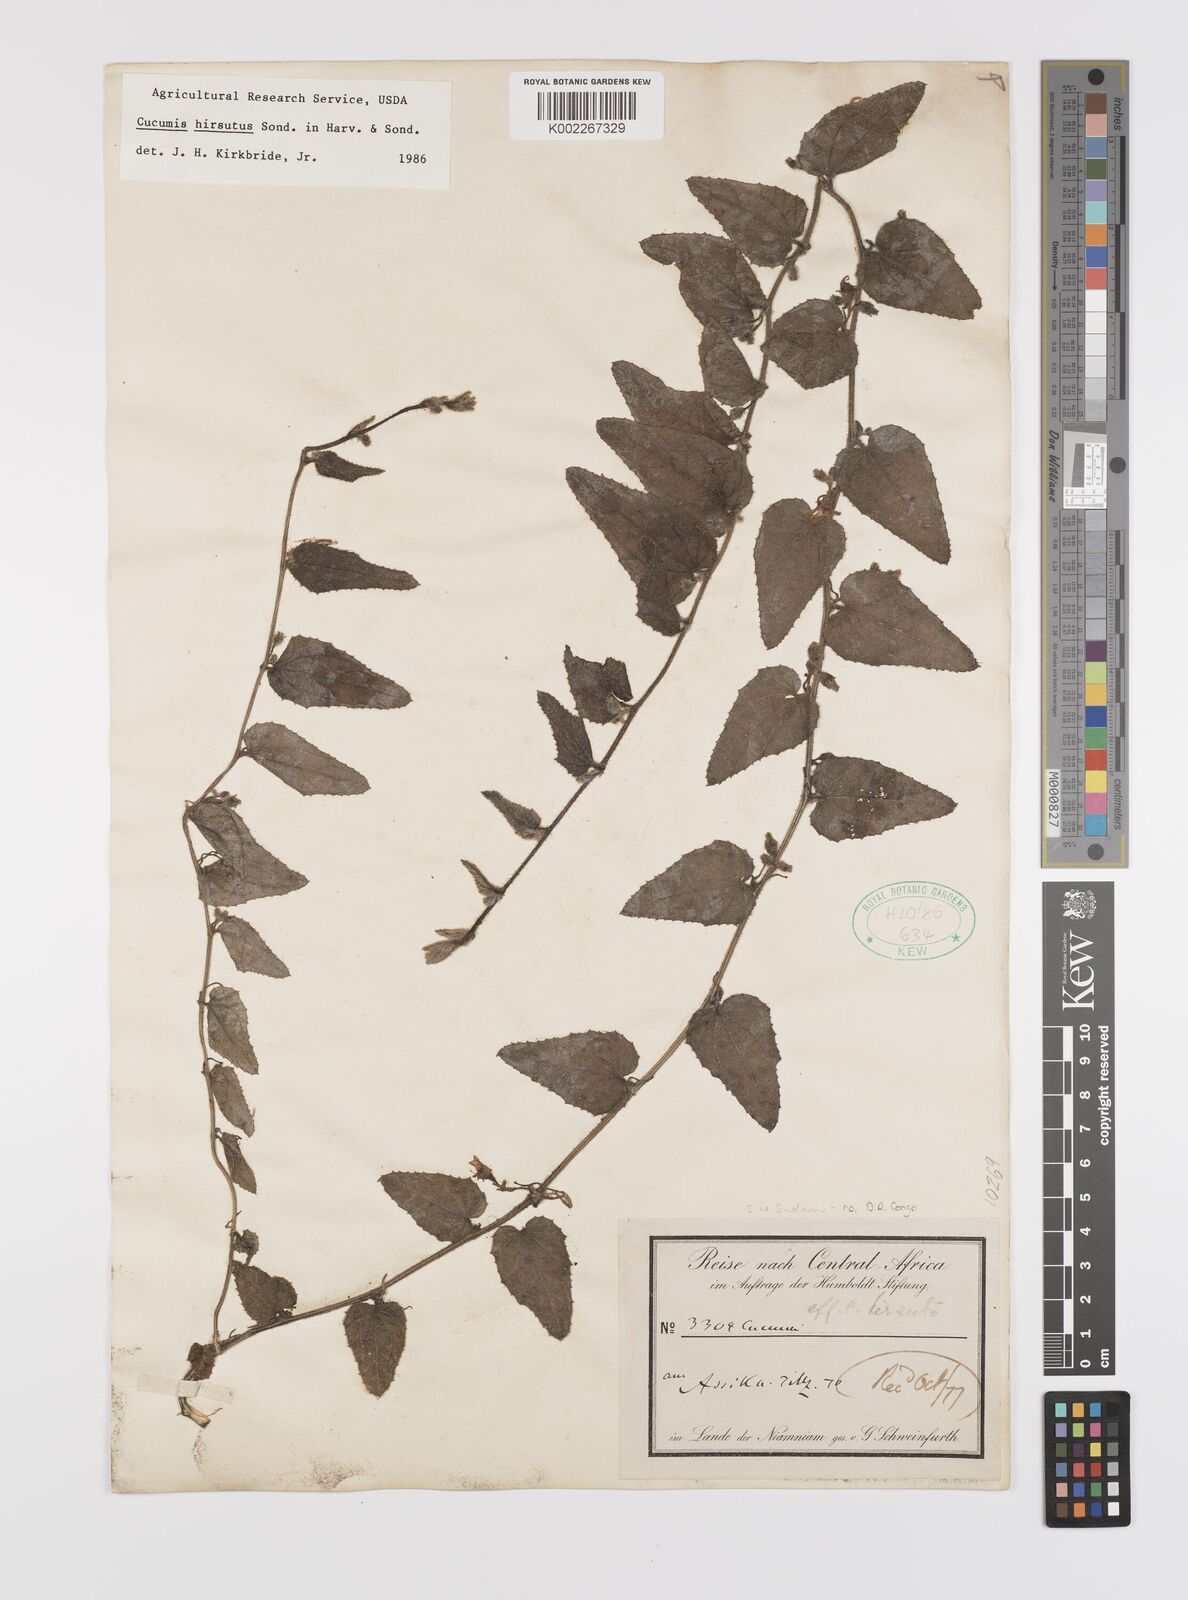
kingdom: Plantae
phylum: Tracheophyta
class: Magnoliopsida
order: Cucurbitales
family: Cucurbitaceae
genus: Cucumis
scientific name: Cucumis hirsutus
